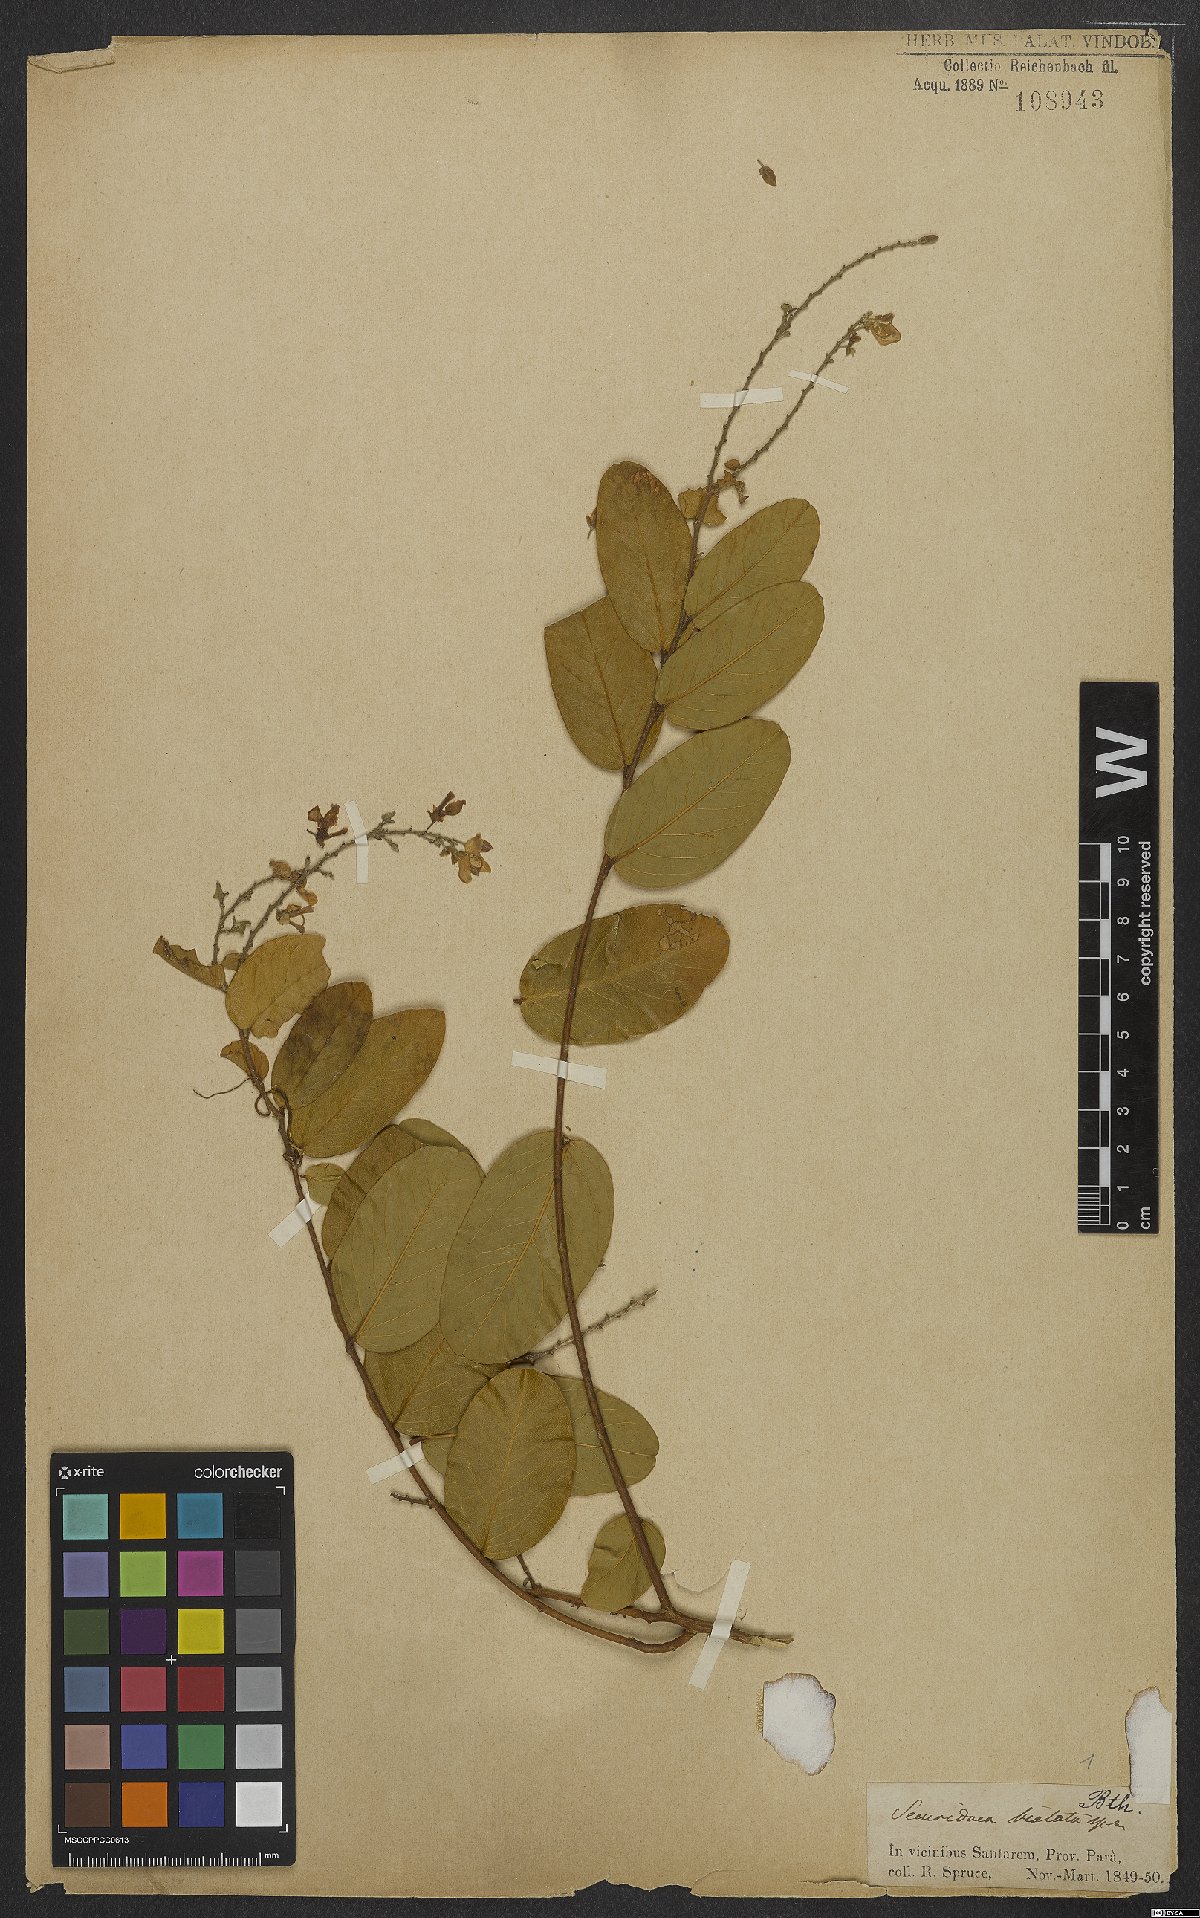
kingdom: Plantae
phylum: Tracheophyta
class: Magnoliopsida
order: Fabales
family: Polygalaceae
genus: Securidaca
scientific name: Securidaca bialata
